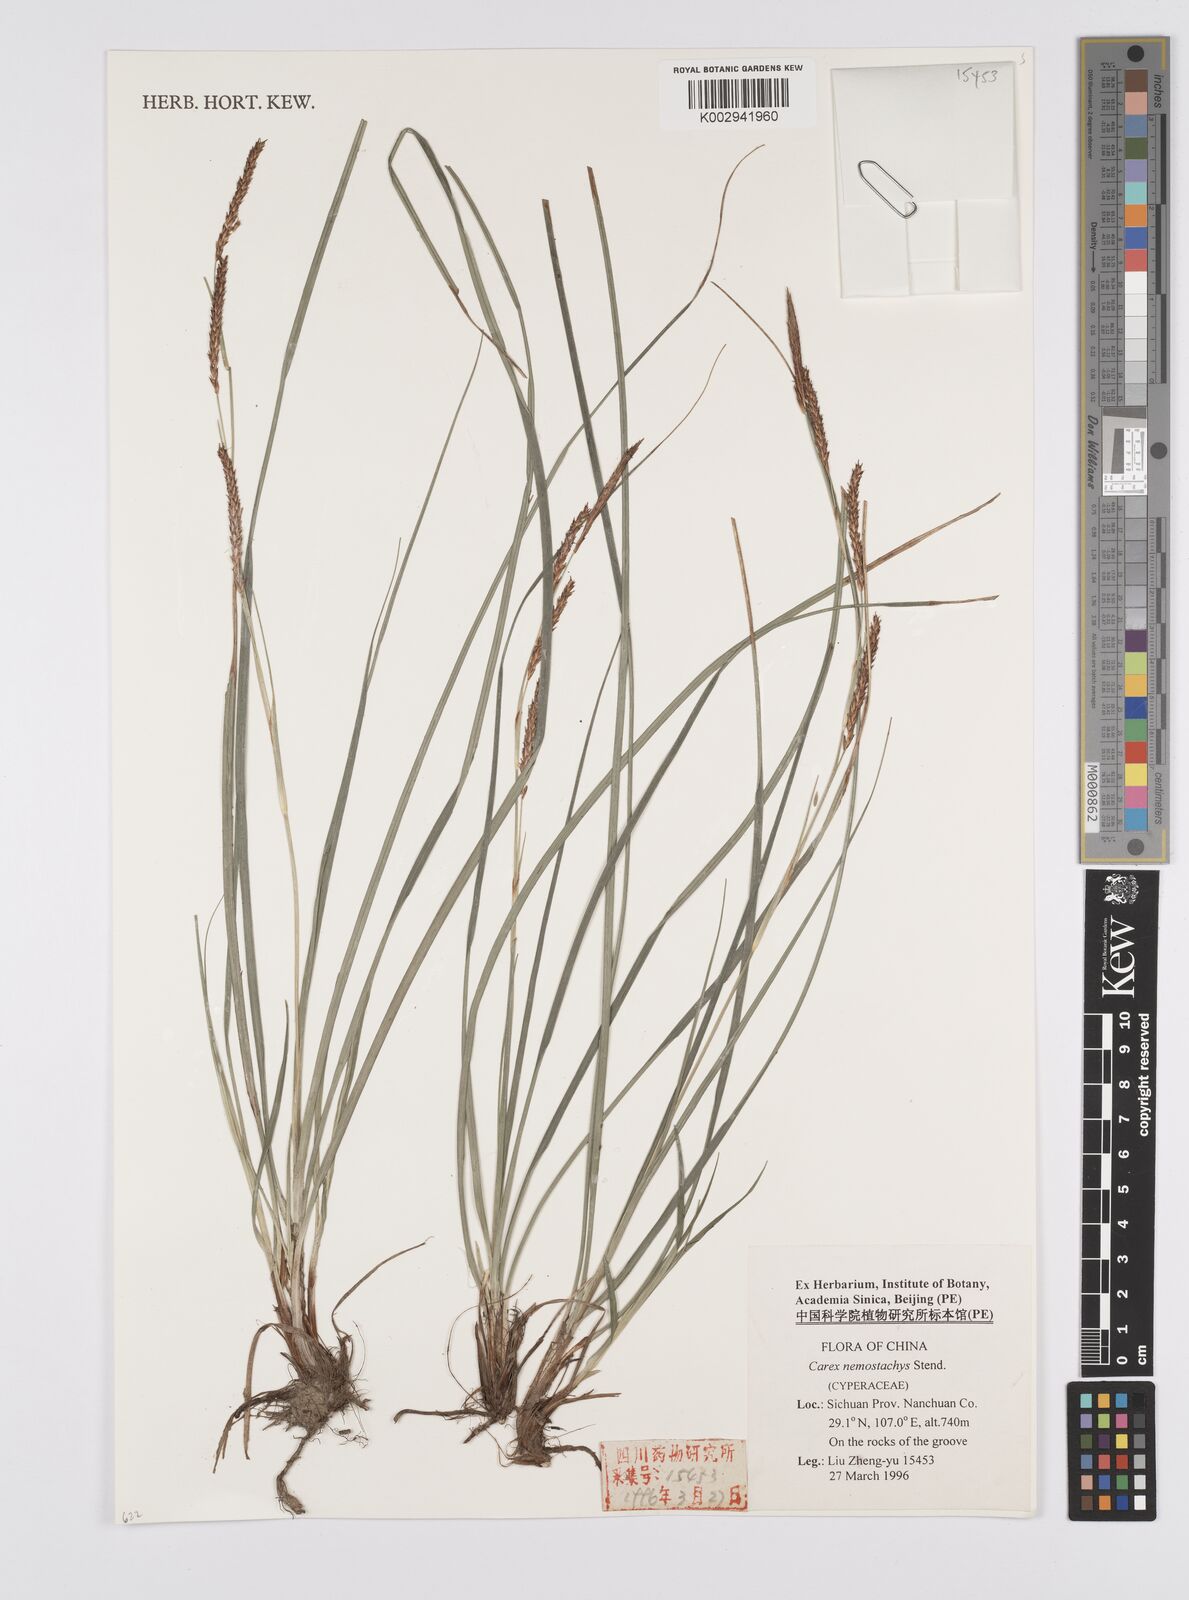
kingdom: Plantae
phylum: Tracheophyta
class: Liliopsida
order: Poales
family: Cyperaceae
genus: Carex
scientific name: Carex nemostachys
